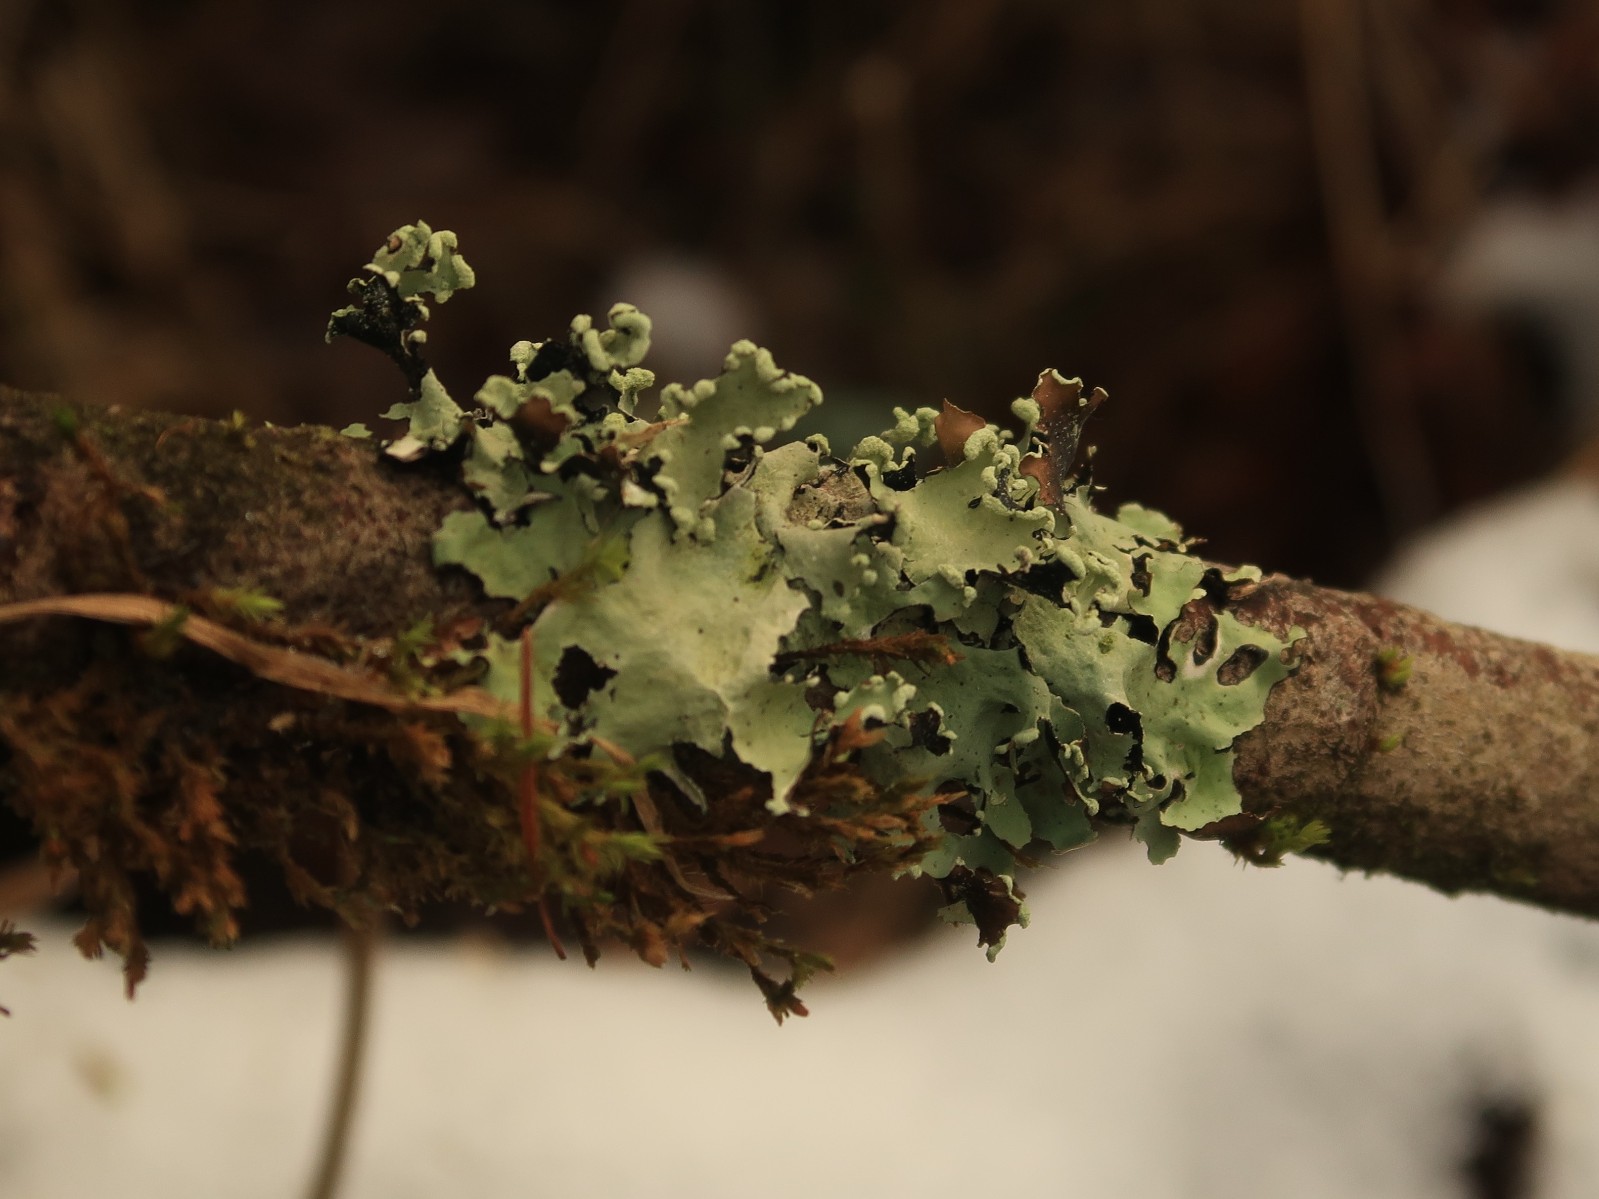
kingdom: Fungi
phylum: Ascomycota
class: Lecanoromycetes
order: Lecanorales
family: Parmeliaceae
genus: Parmotrema
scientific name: Parmotrema perlatum
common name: trådet skållav
